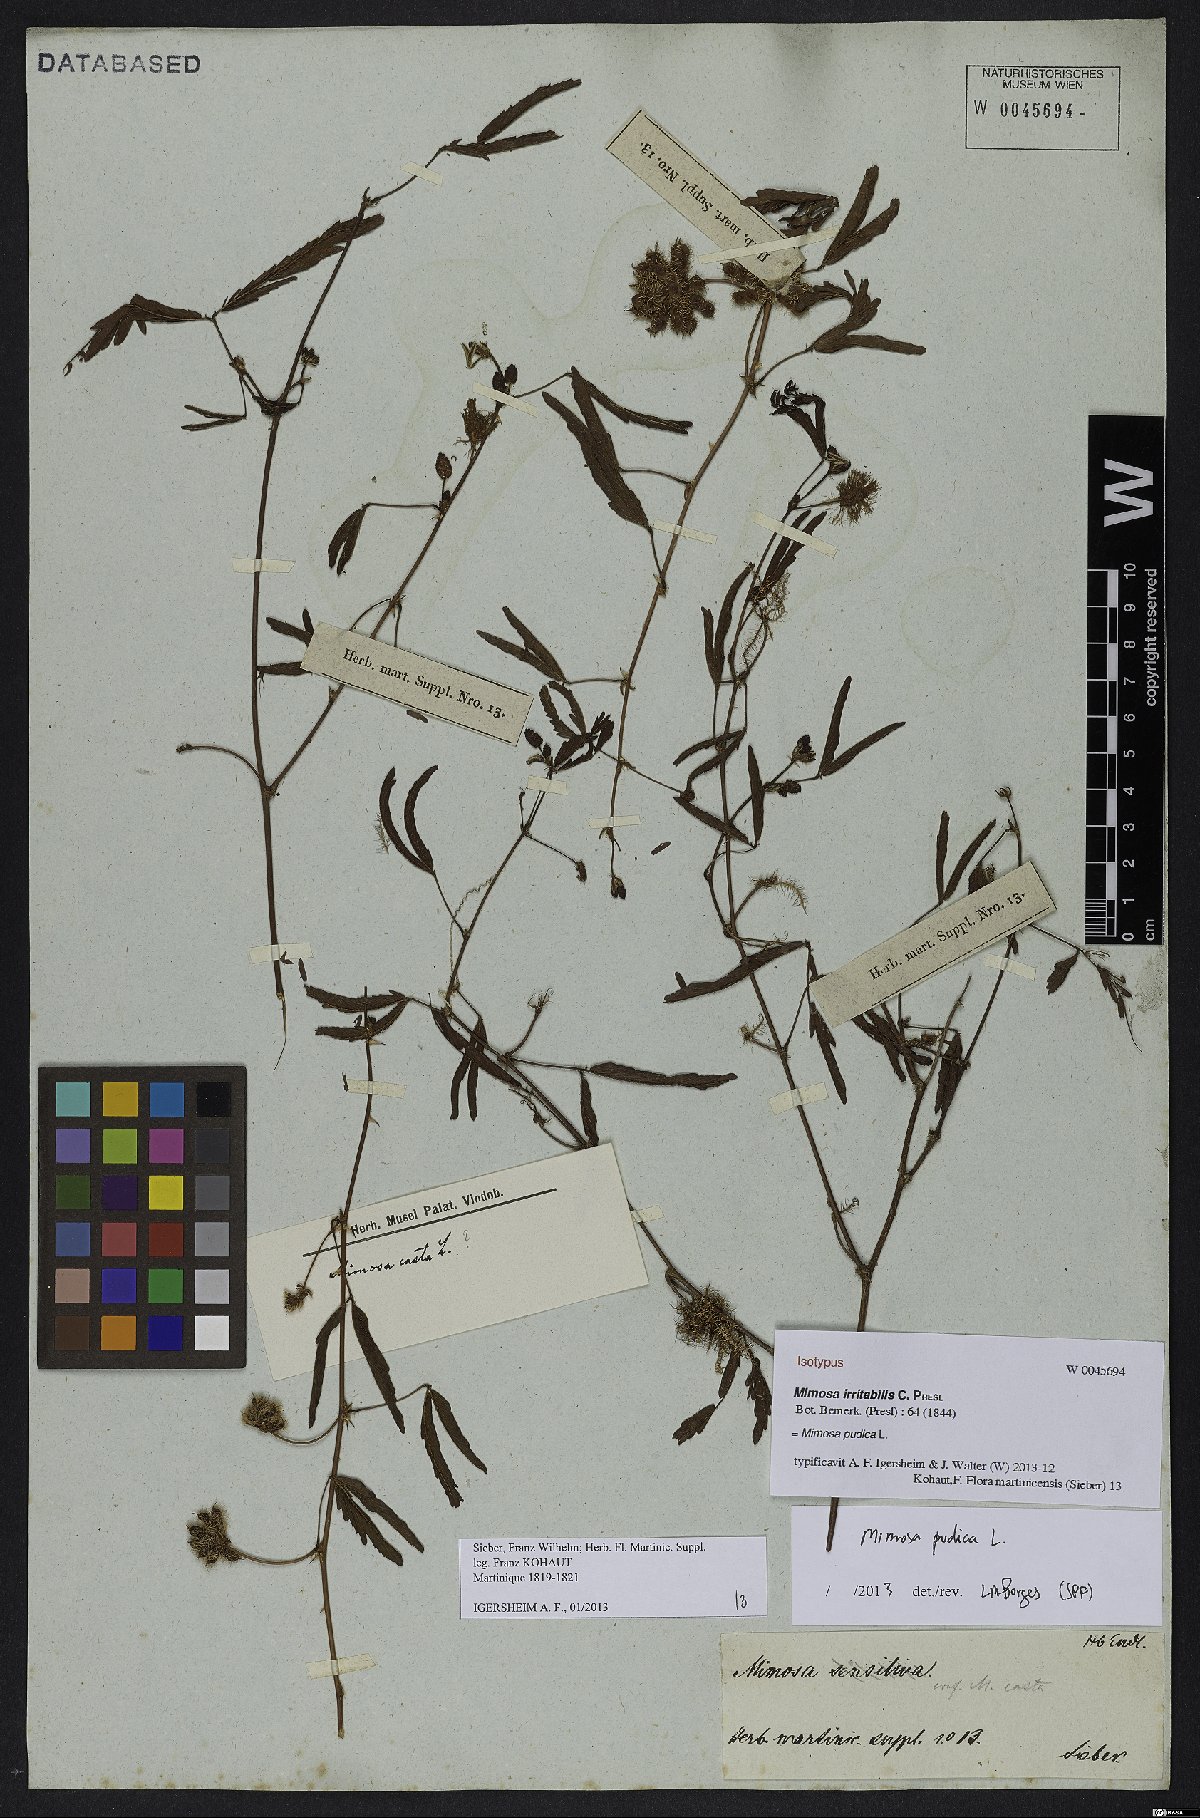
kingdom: Plantae
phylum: Tracheophyta
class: Magnoliopsida
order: Fabales
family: Fabaceae
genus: Mimosa
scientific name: Mimosa pudica
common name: Sensitive plant
